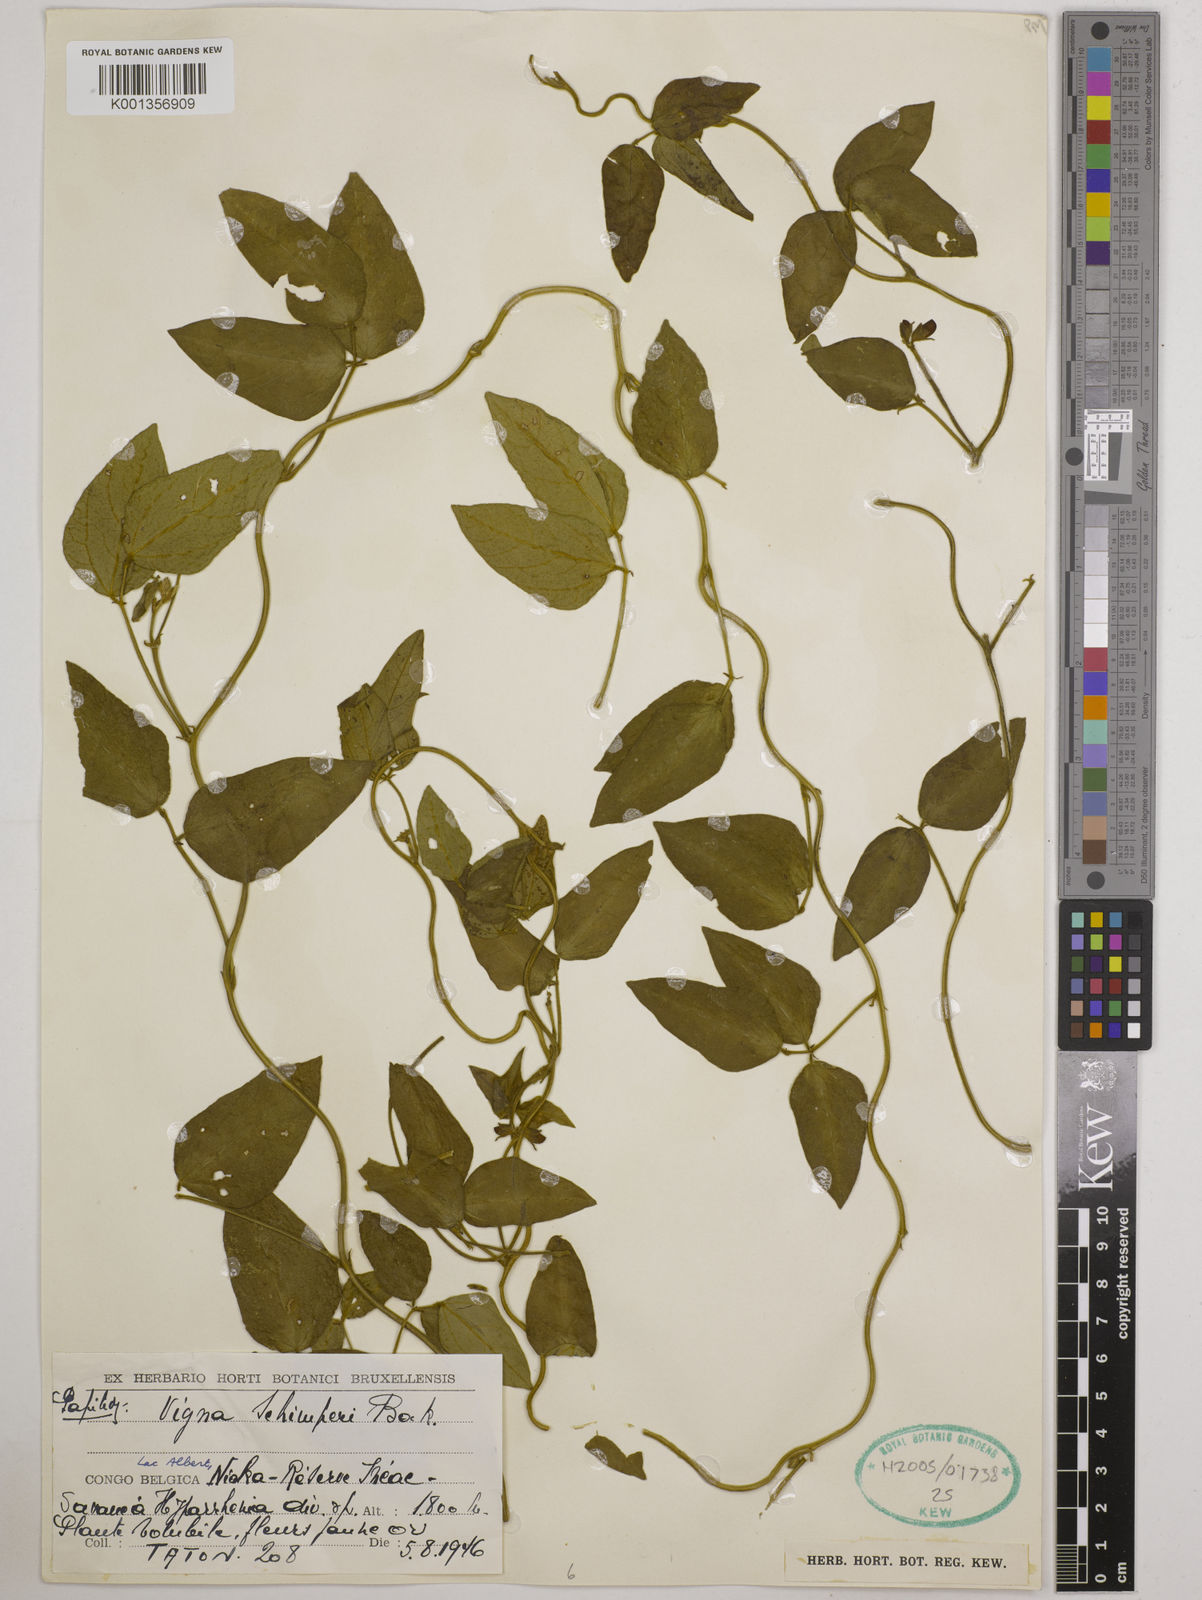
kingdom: Plantae
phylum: Tracheophyta
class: Magnoliopsida
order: Fabales
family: Fabaceae
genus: Vigna
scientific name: Vigna schimperi
